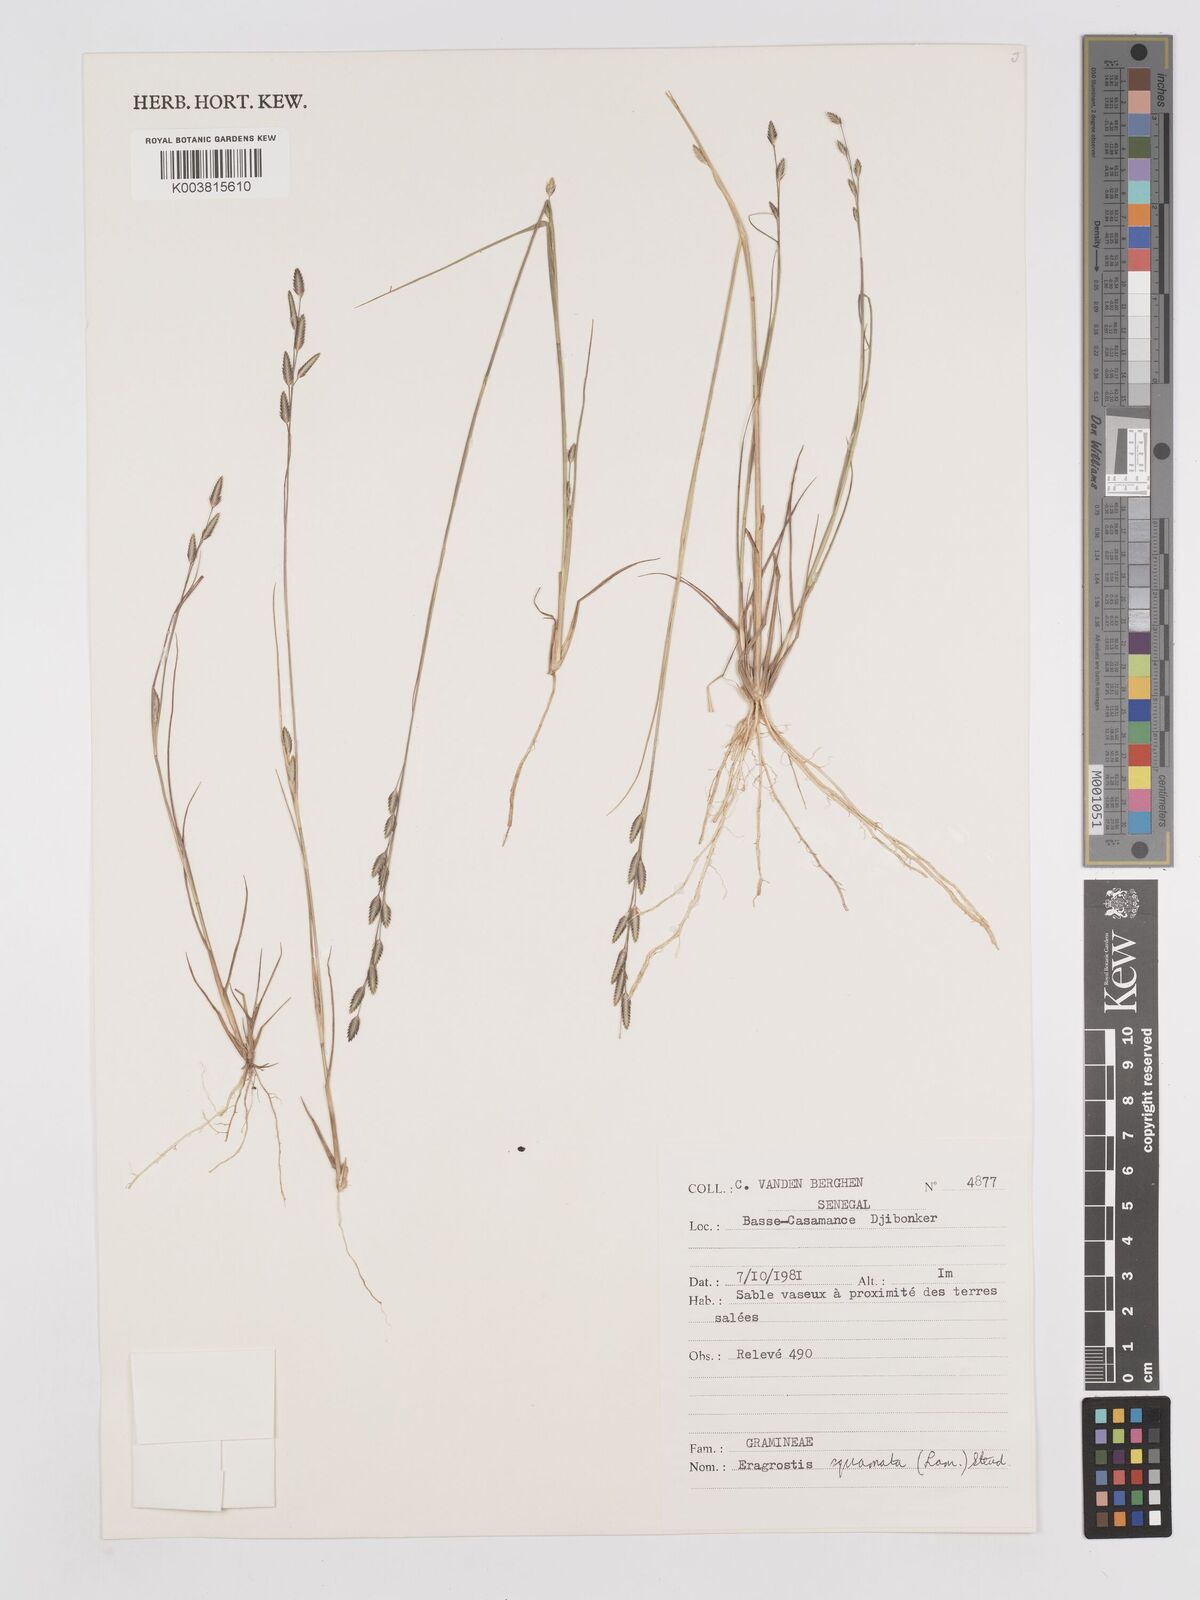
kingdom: Plantae
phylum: Tracheophyta
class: Liliopsida
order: Poales
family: Poaceae
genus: Eragrostis
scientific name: Eragrostis squamata
